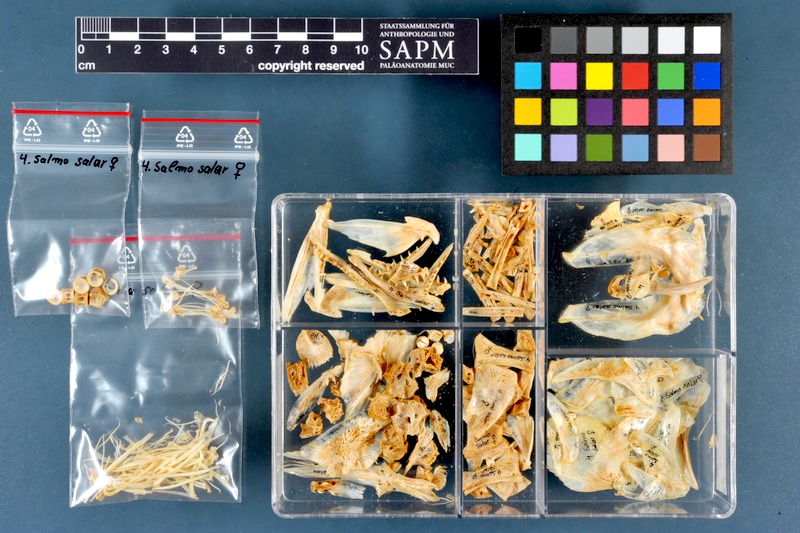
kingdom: Animalia
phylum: Chordata
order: Salmoniformes
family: Salmonidae
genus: Salmo
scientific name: Salmo salar
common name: Atlantic salmon
